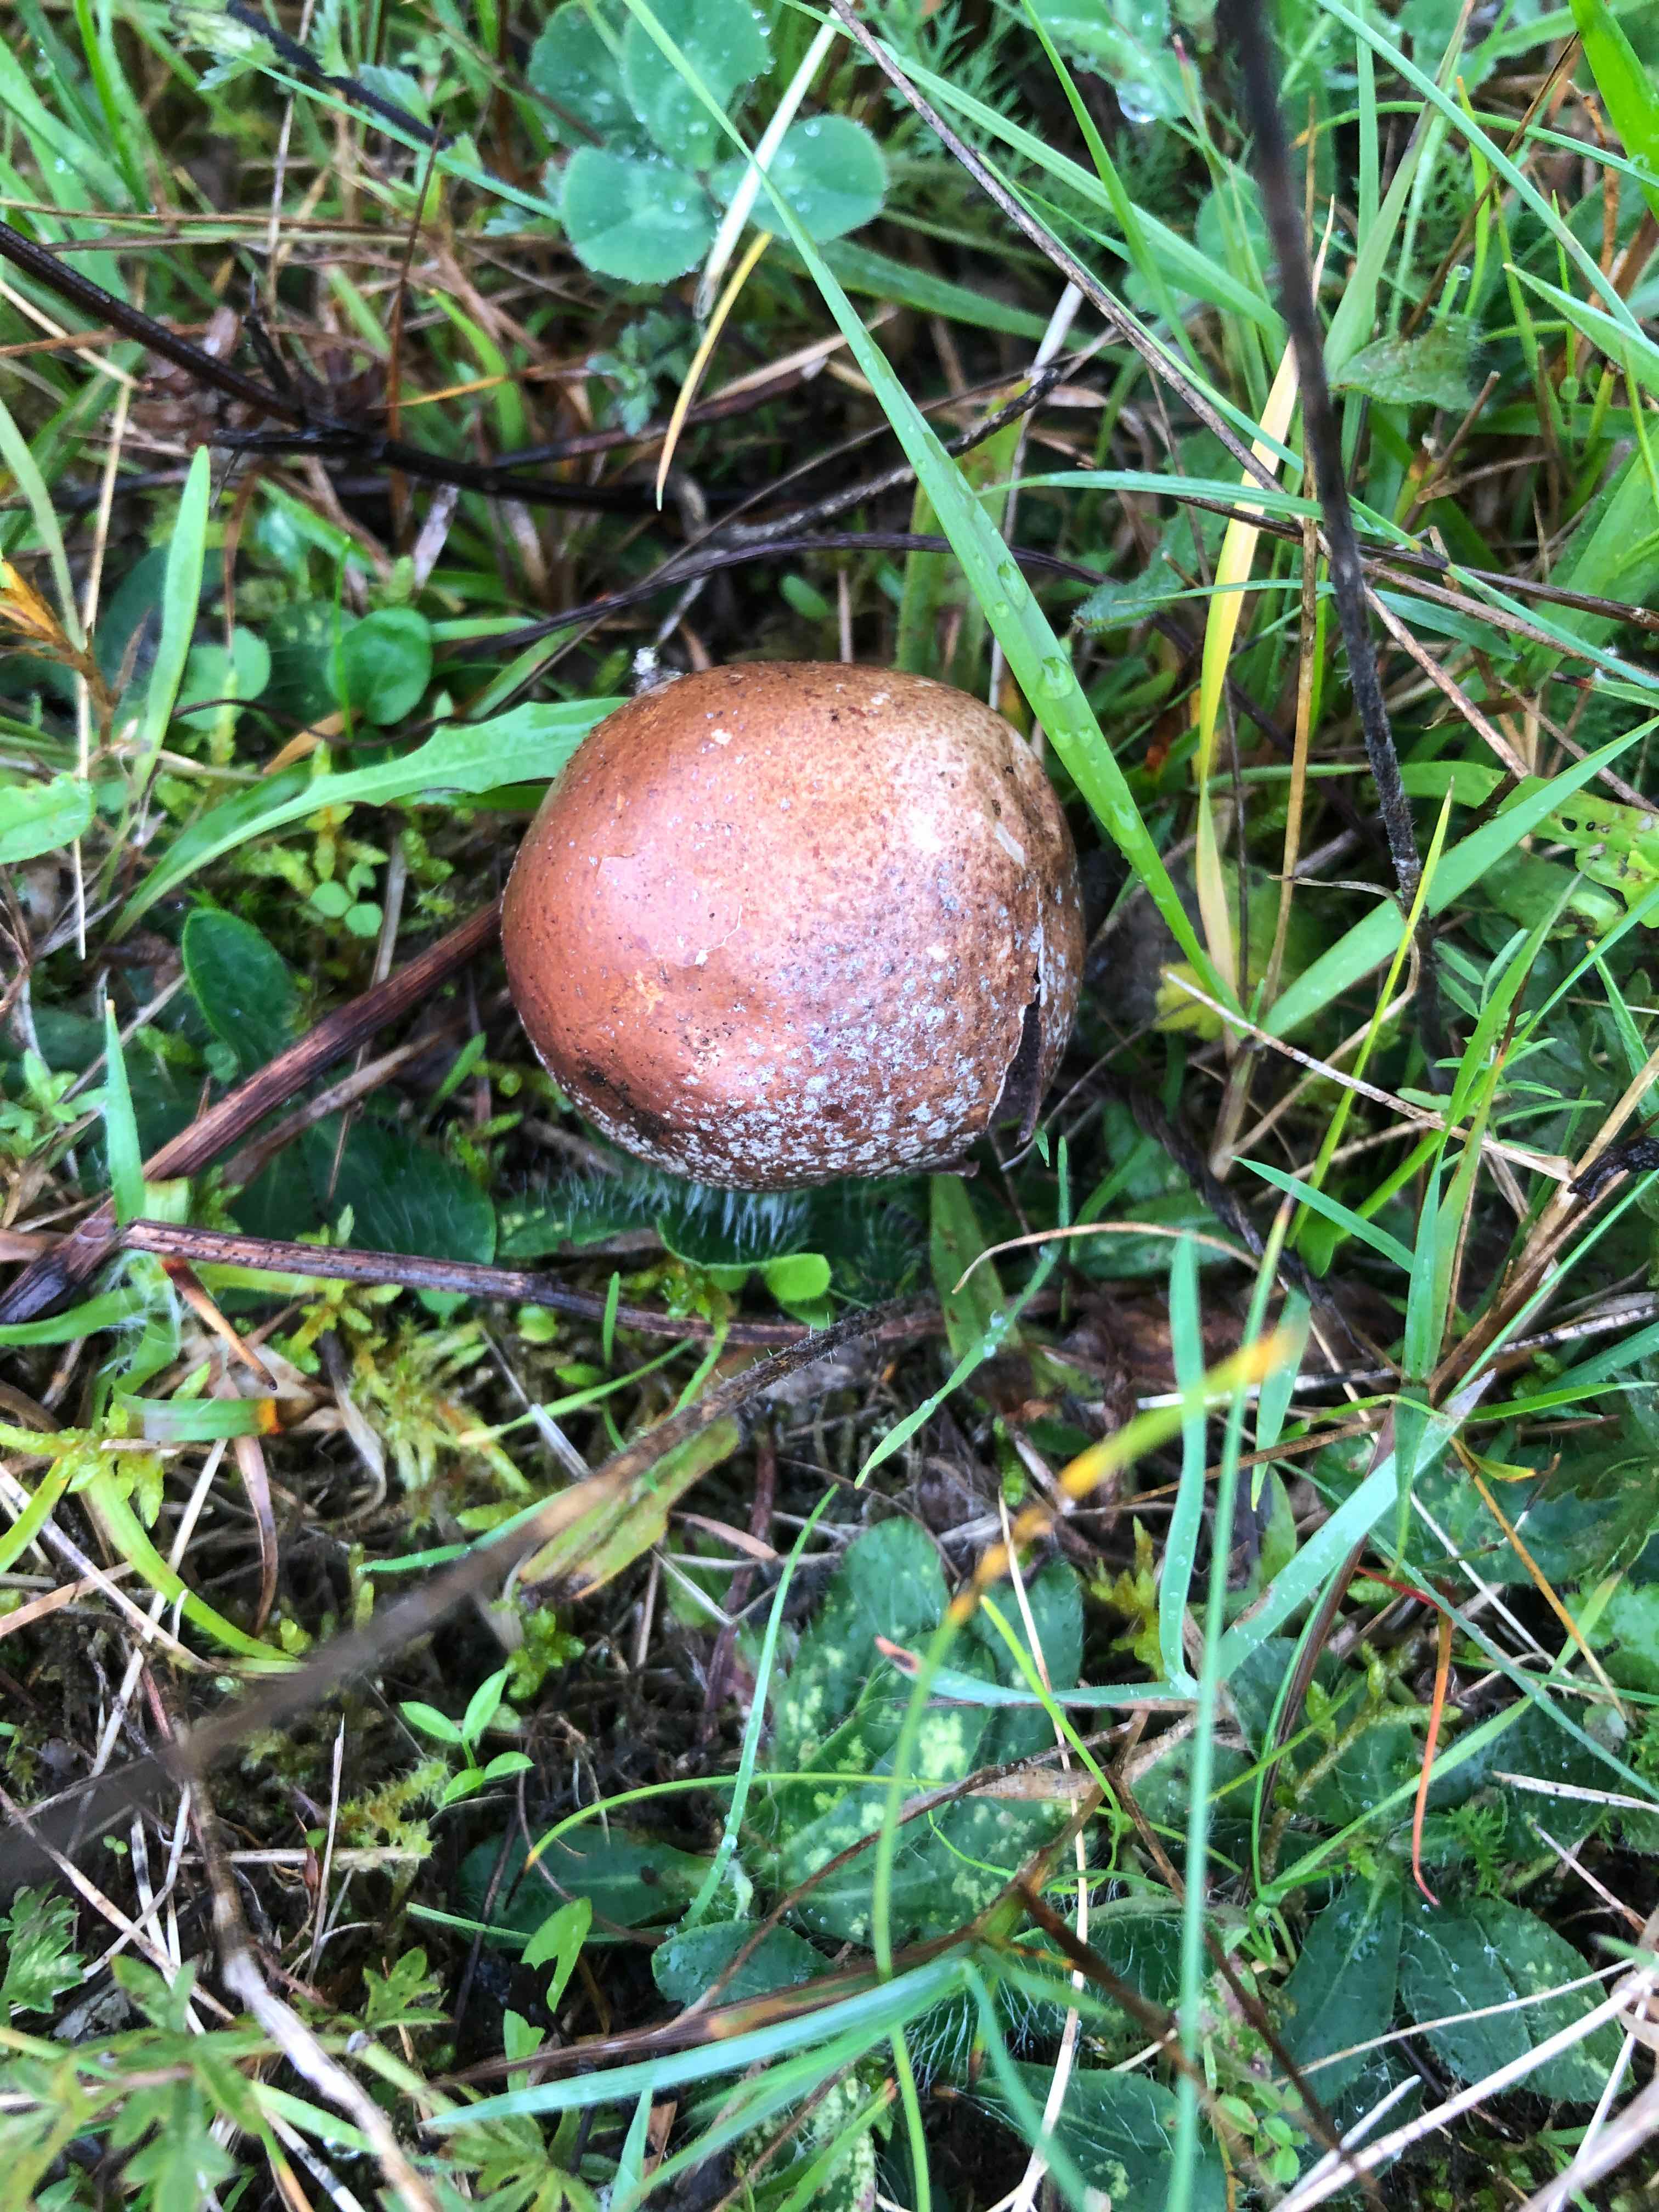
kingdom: Fungi
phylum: Basidiomycota
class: Agaricomycetes
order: Agaricales
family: Lycoperdaceae
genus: Bovista
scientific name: Bovista nigrescens
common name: sortagtig bovist
